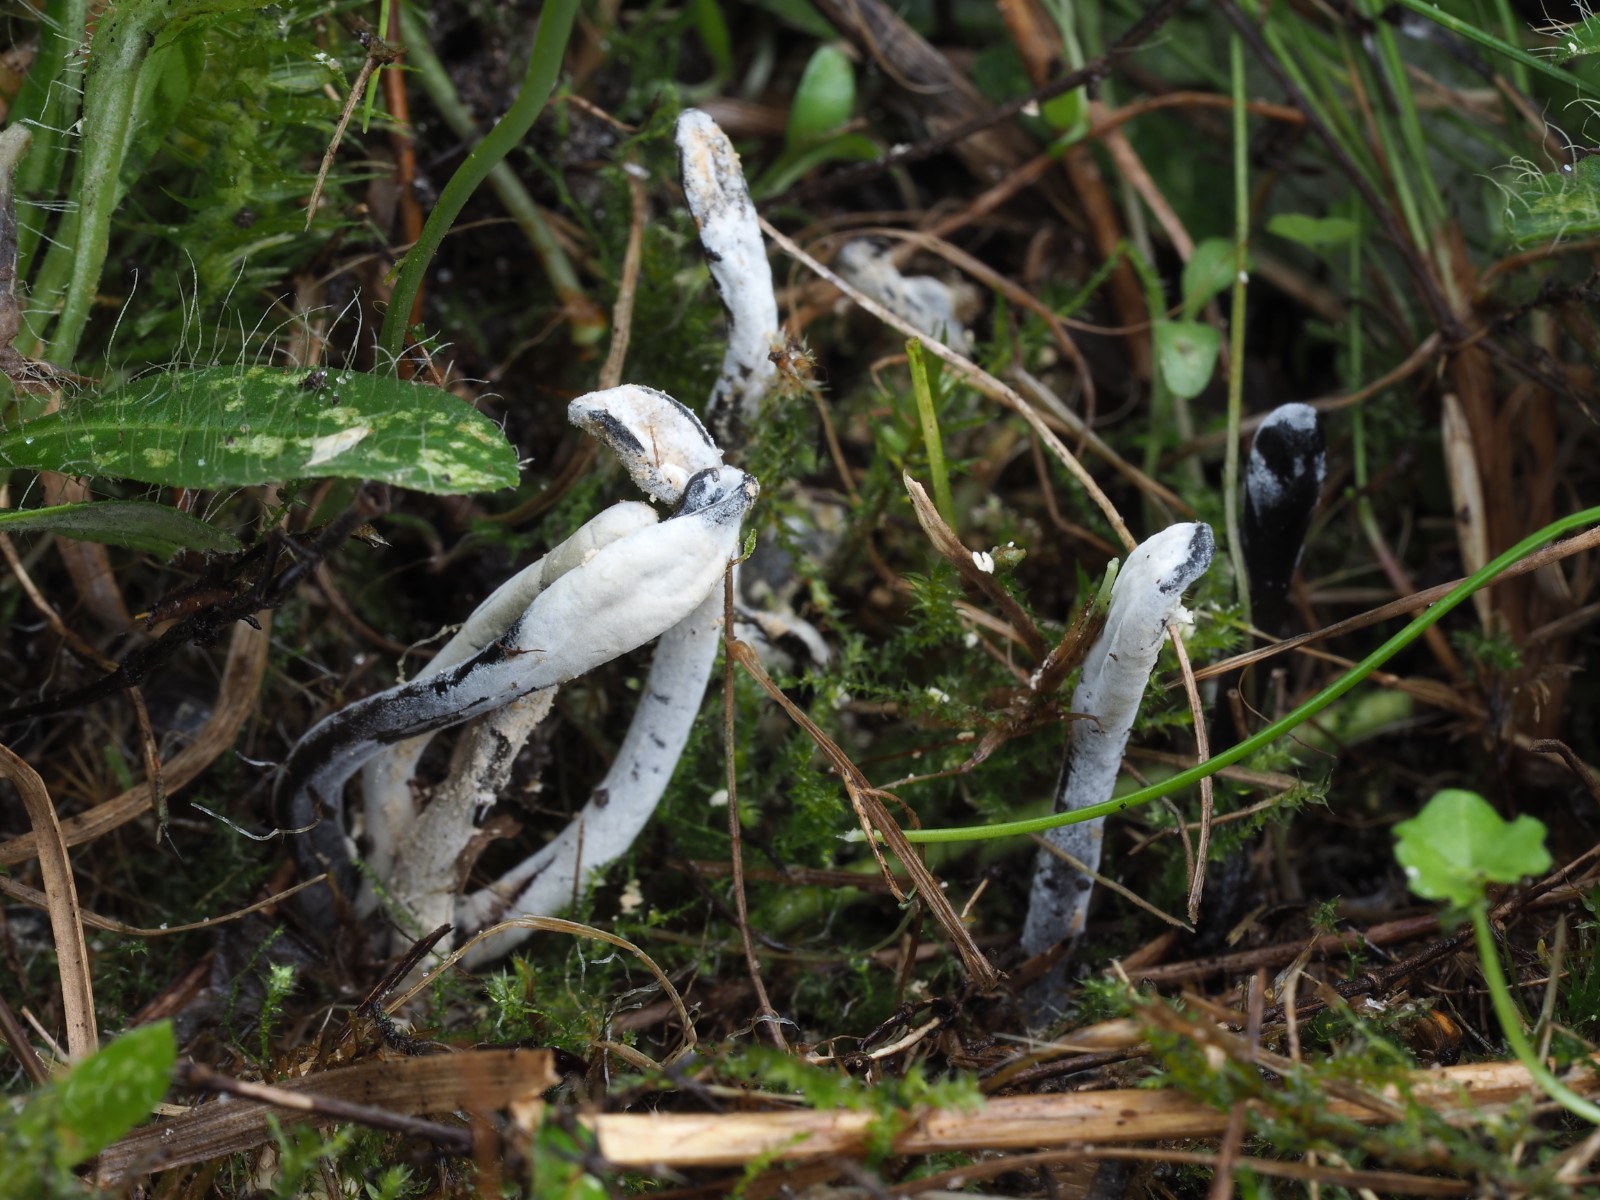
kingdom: Fungi
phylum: Ascomycota
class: Sordariomycetes
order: Hypocreales
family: Hypocreaceae
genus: Hypomyces
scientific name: Hypomyces papulasporae
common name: jordtunge-snylteskorpe
